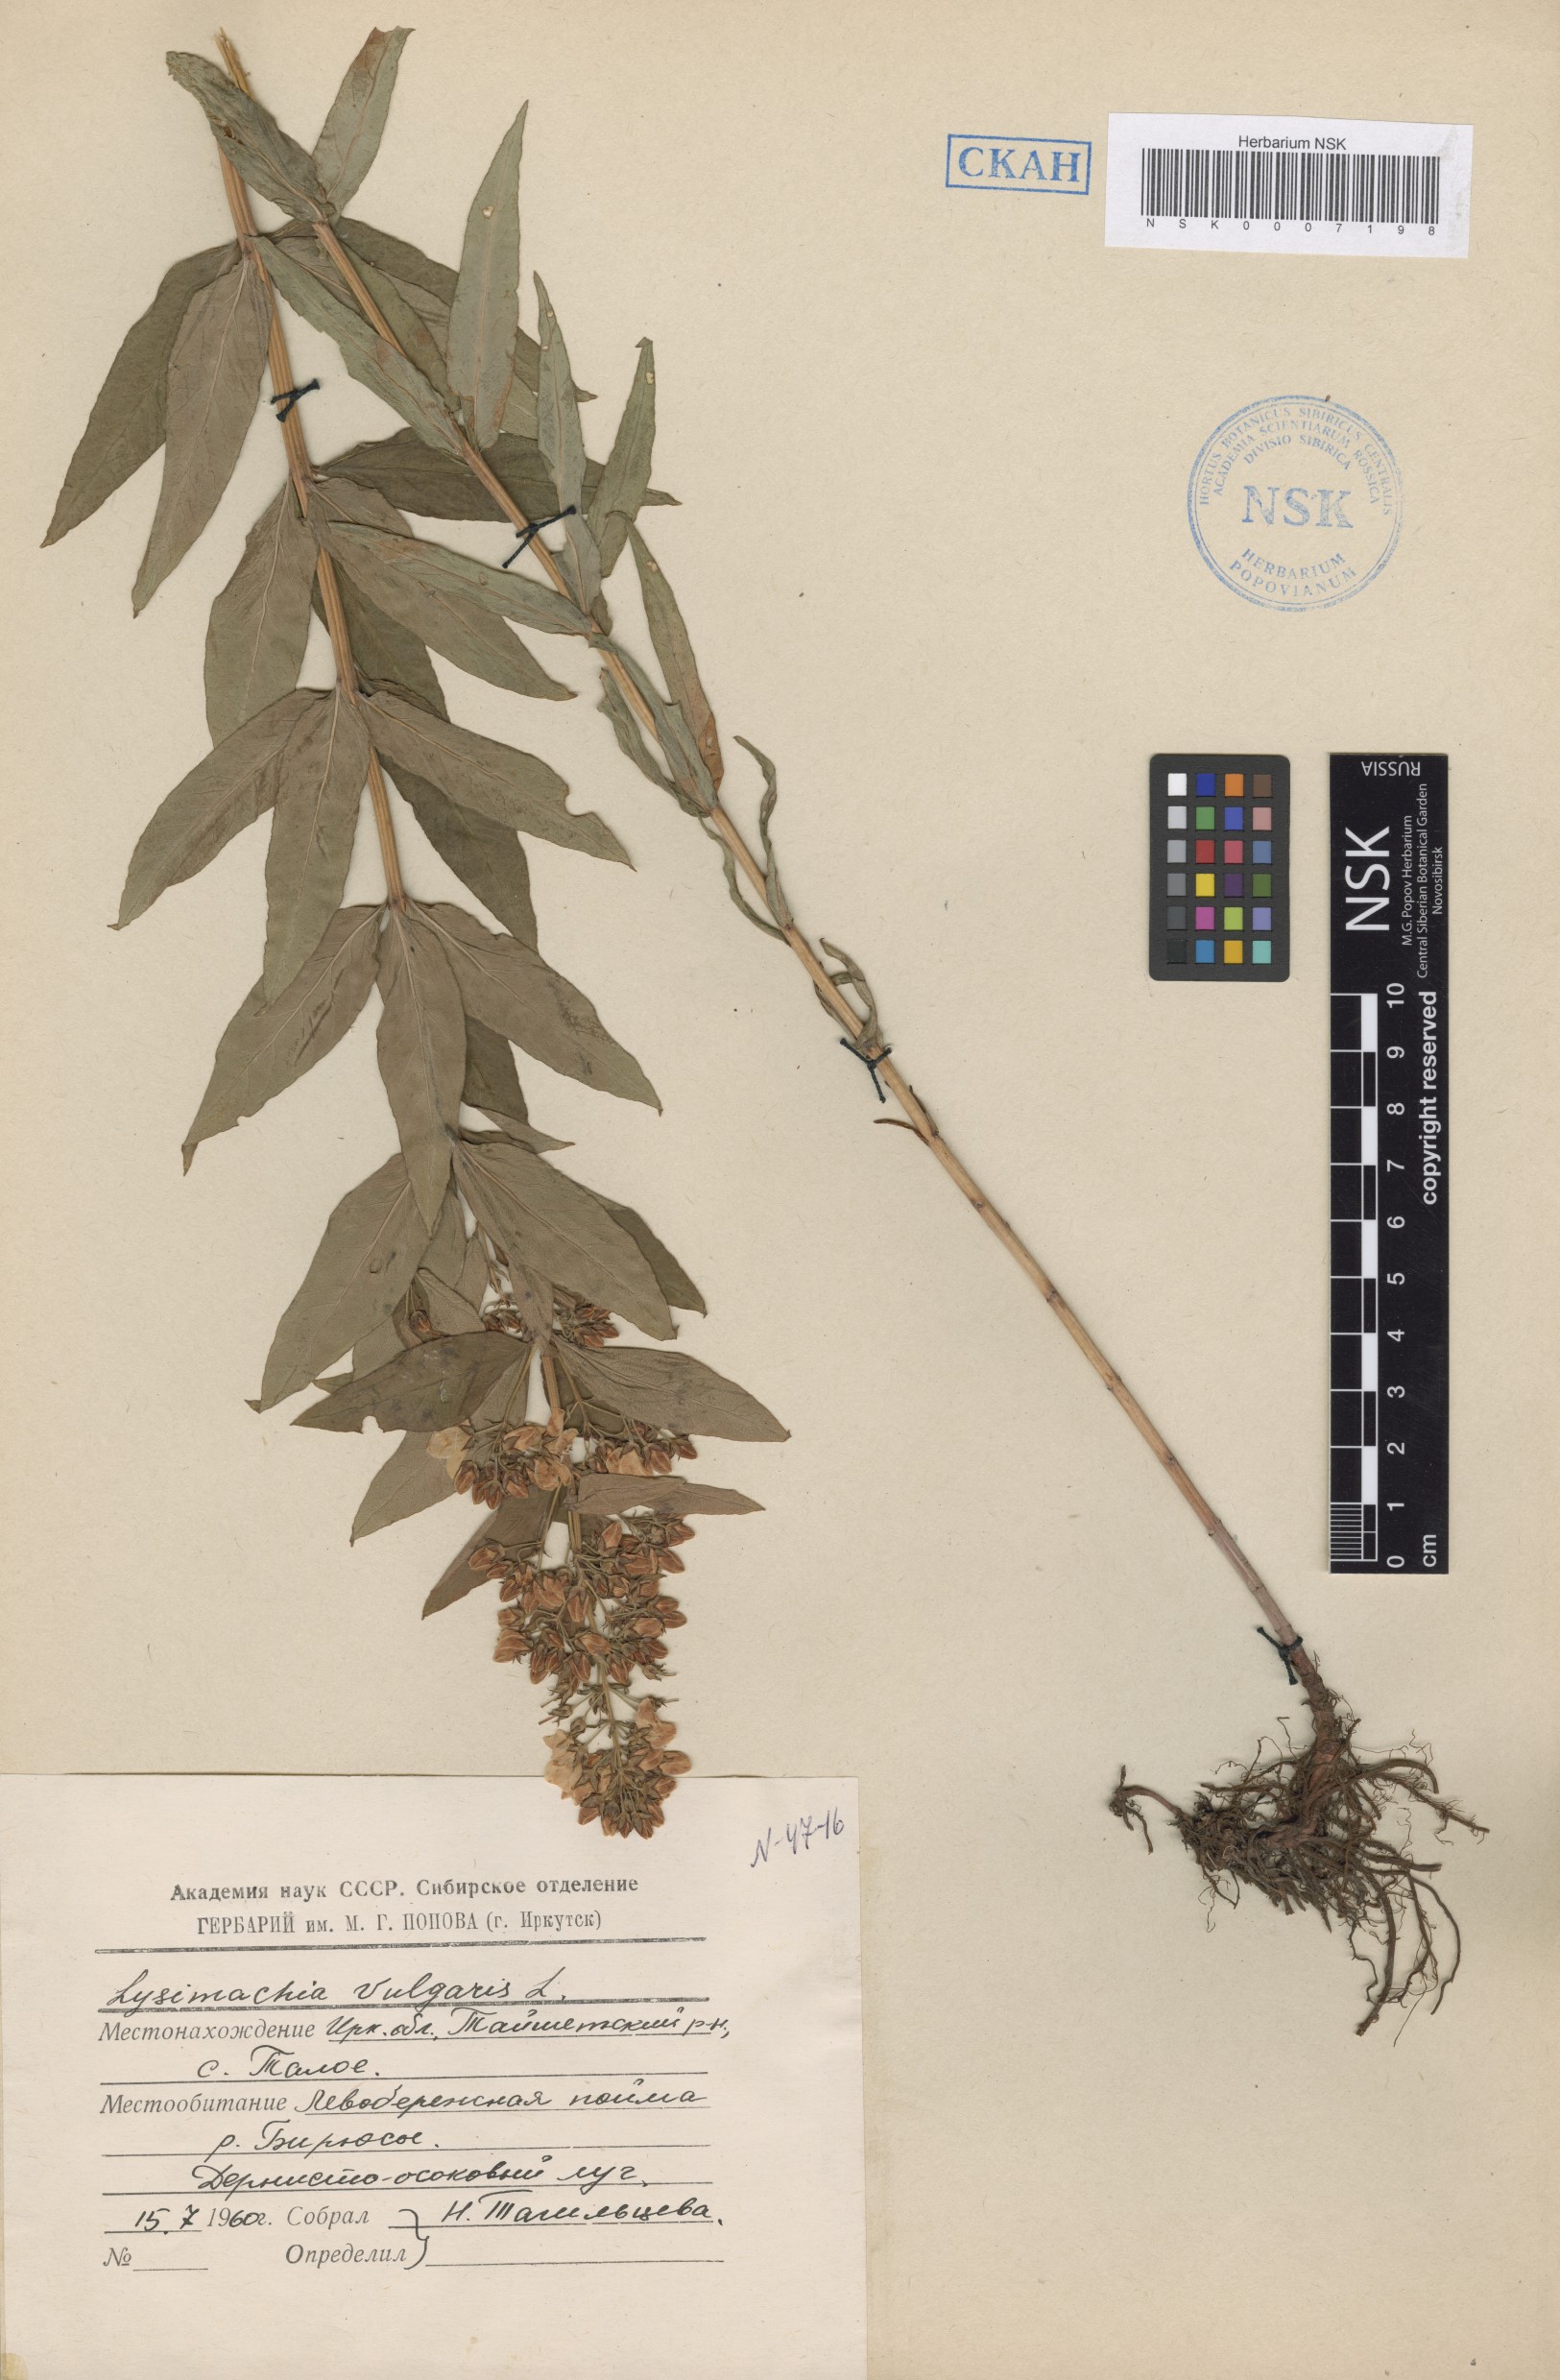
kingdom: Plantae
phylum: Tracheophyta
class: Magnoliopsida
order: Ericales
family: Primulaceae
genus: Lysimachia
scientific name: Lysimachia vulgaris
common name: Yellow loosestrife
